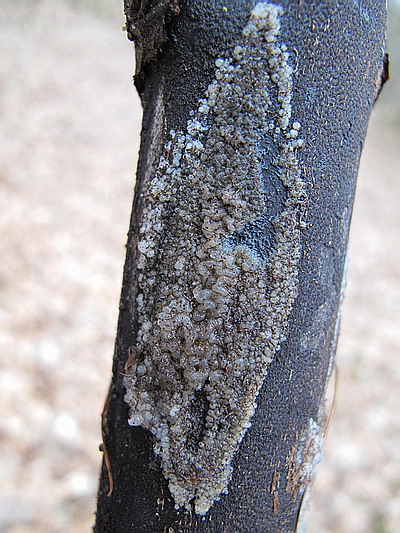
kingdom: Fungi
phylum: Basidiomycota
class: Tremellomycetes
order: Tremellales
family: Sirobasidiaceae
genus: Sirobasidium
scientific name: Sirobasidium albidum
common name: hvid kædebævresvamp
